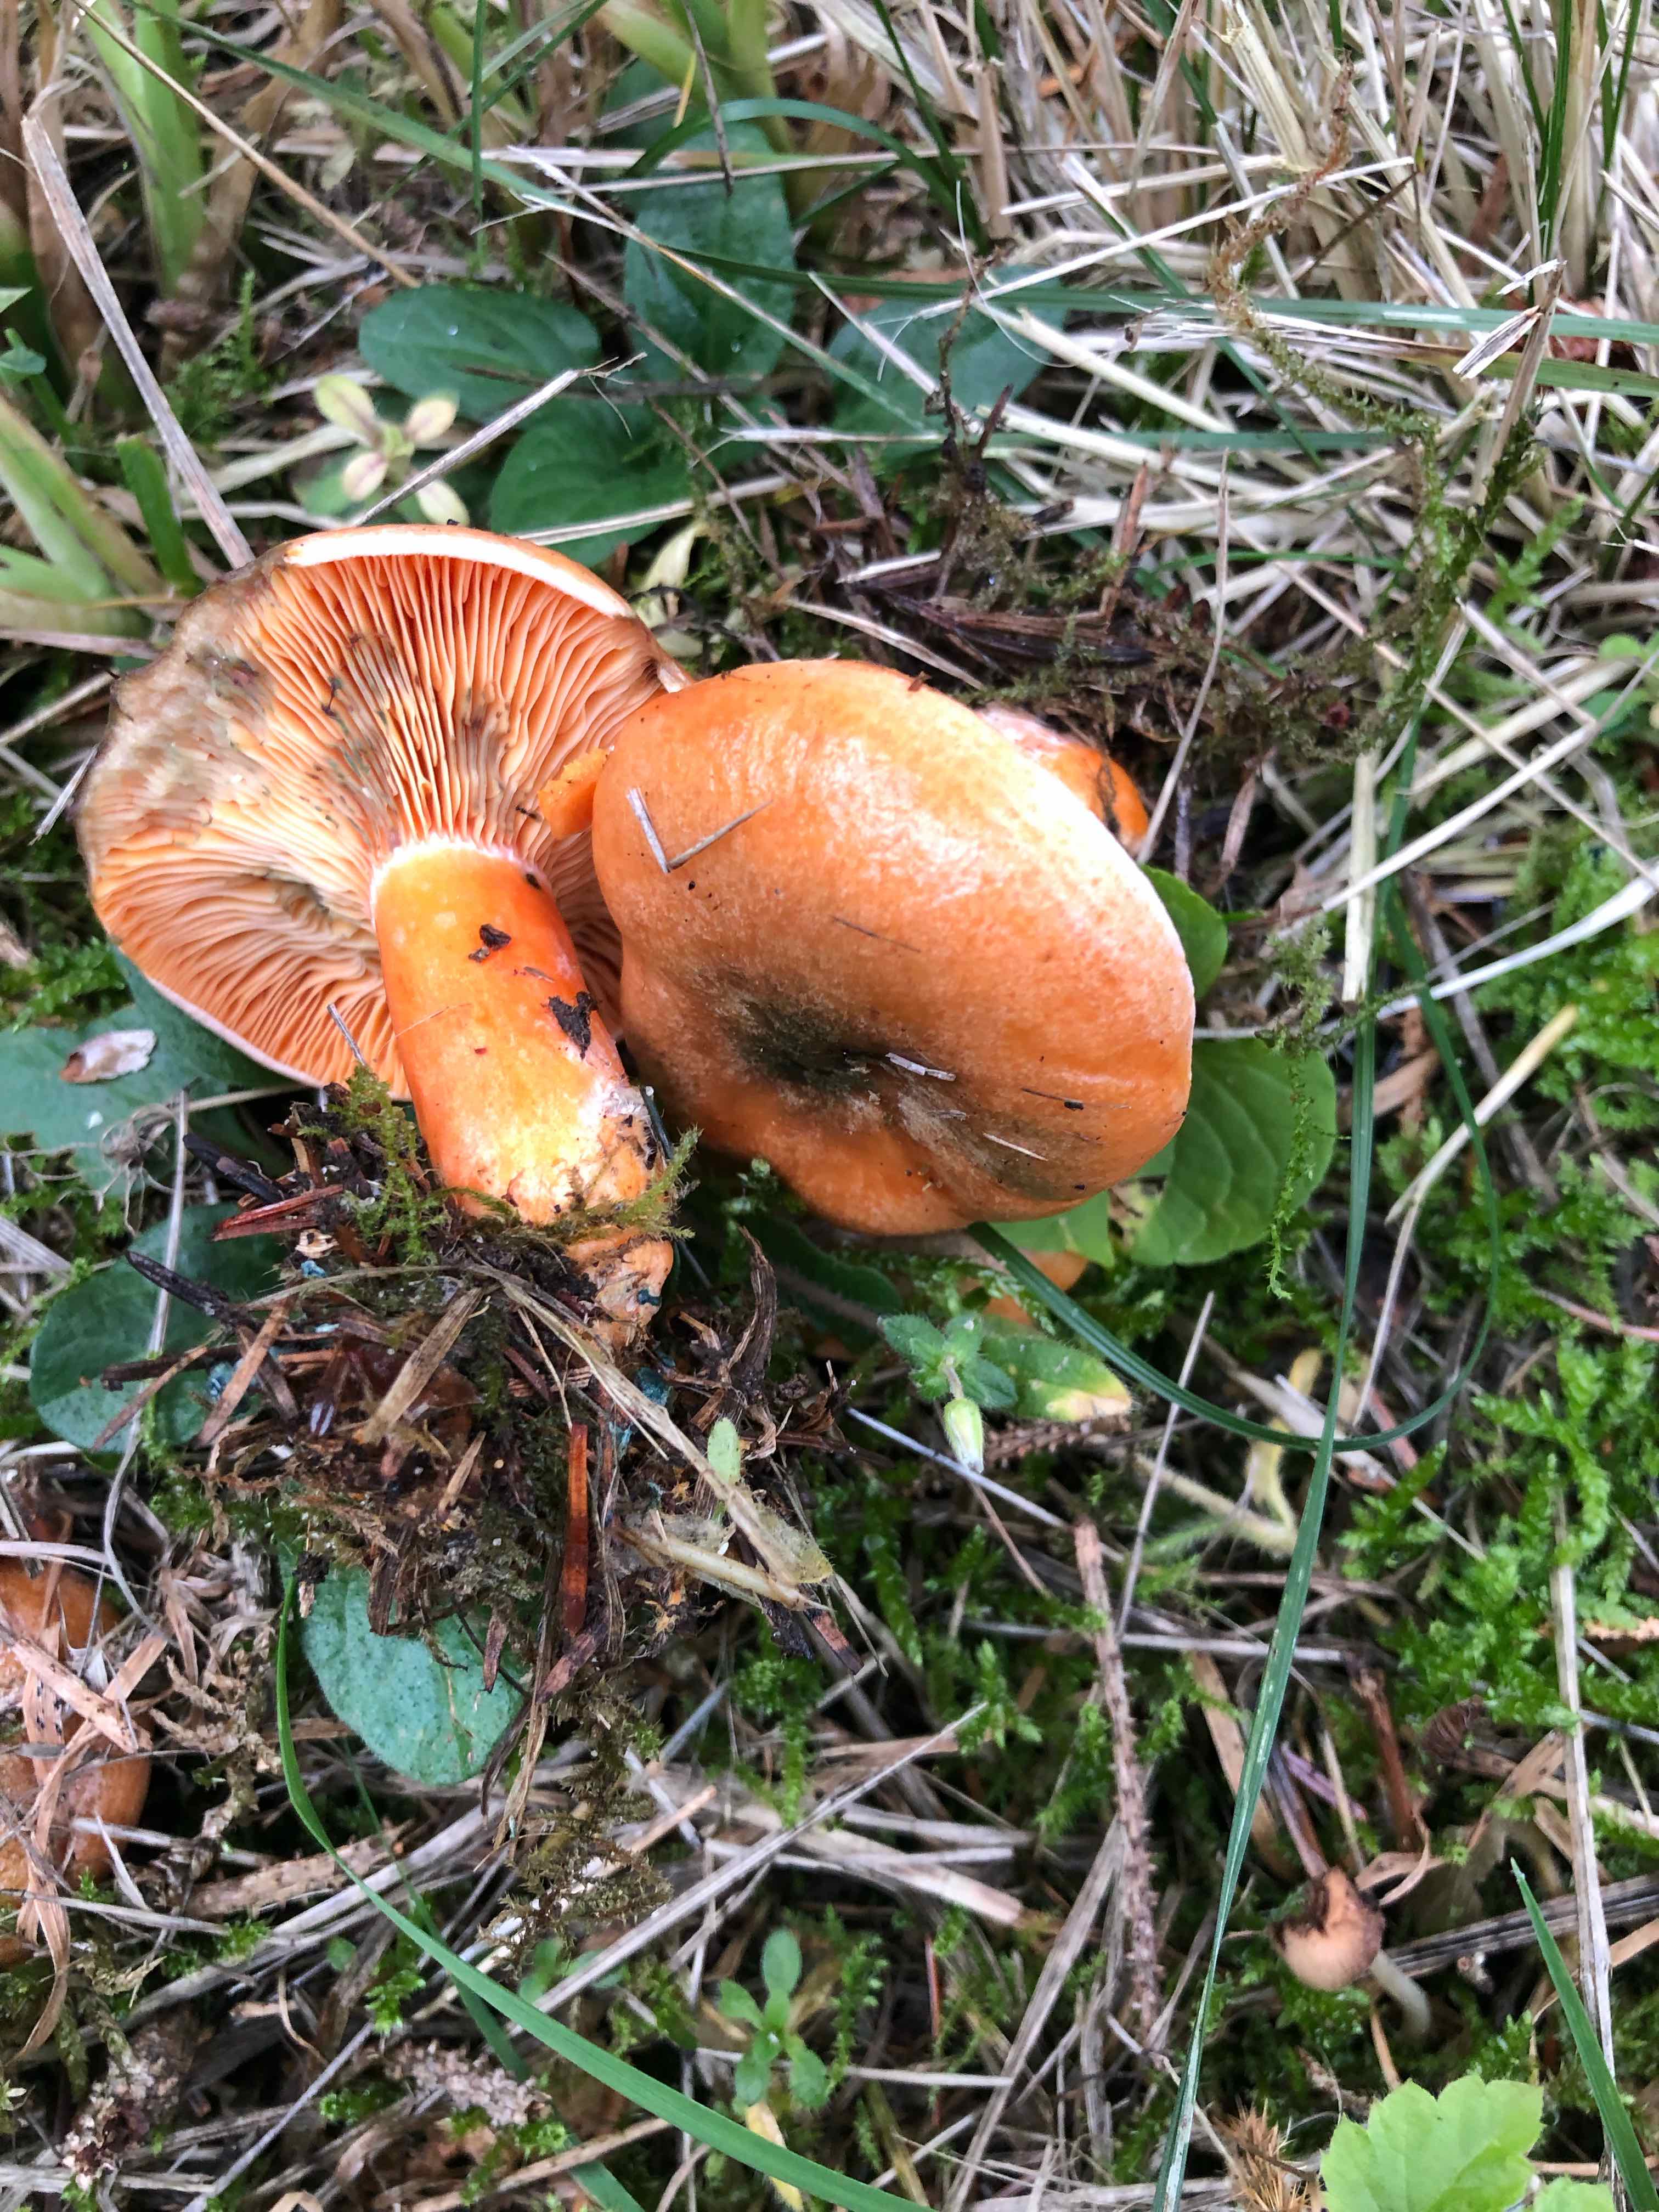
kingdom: Fungi
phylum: Basidiomycota
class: Agaricomycetes
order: Russulales
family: Russulaceae
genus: Lactarius
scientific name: Lactarius deterrimus
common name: gran-mælkehat
